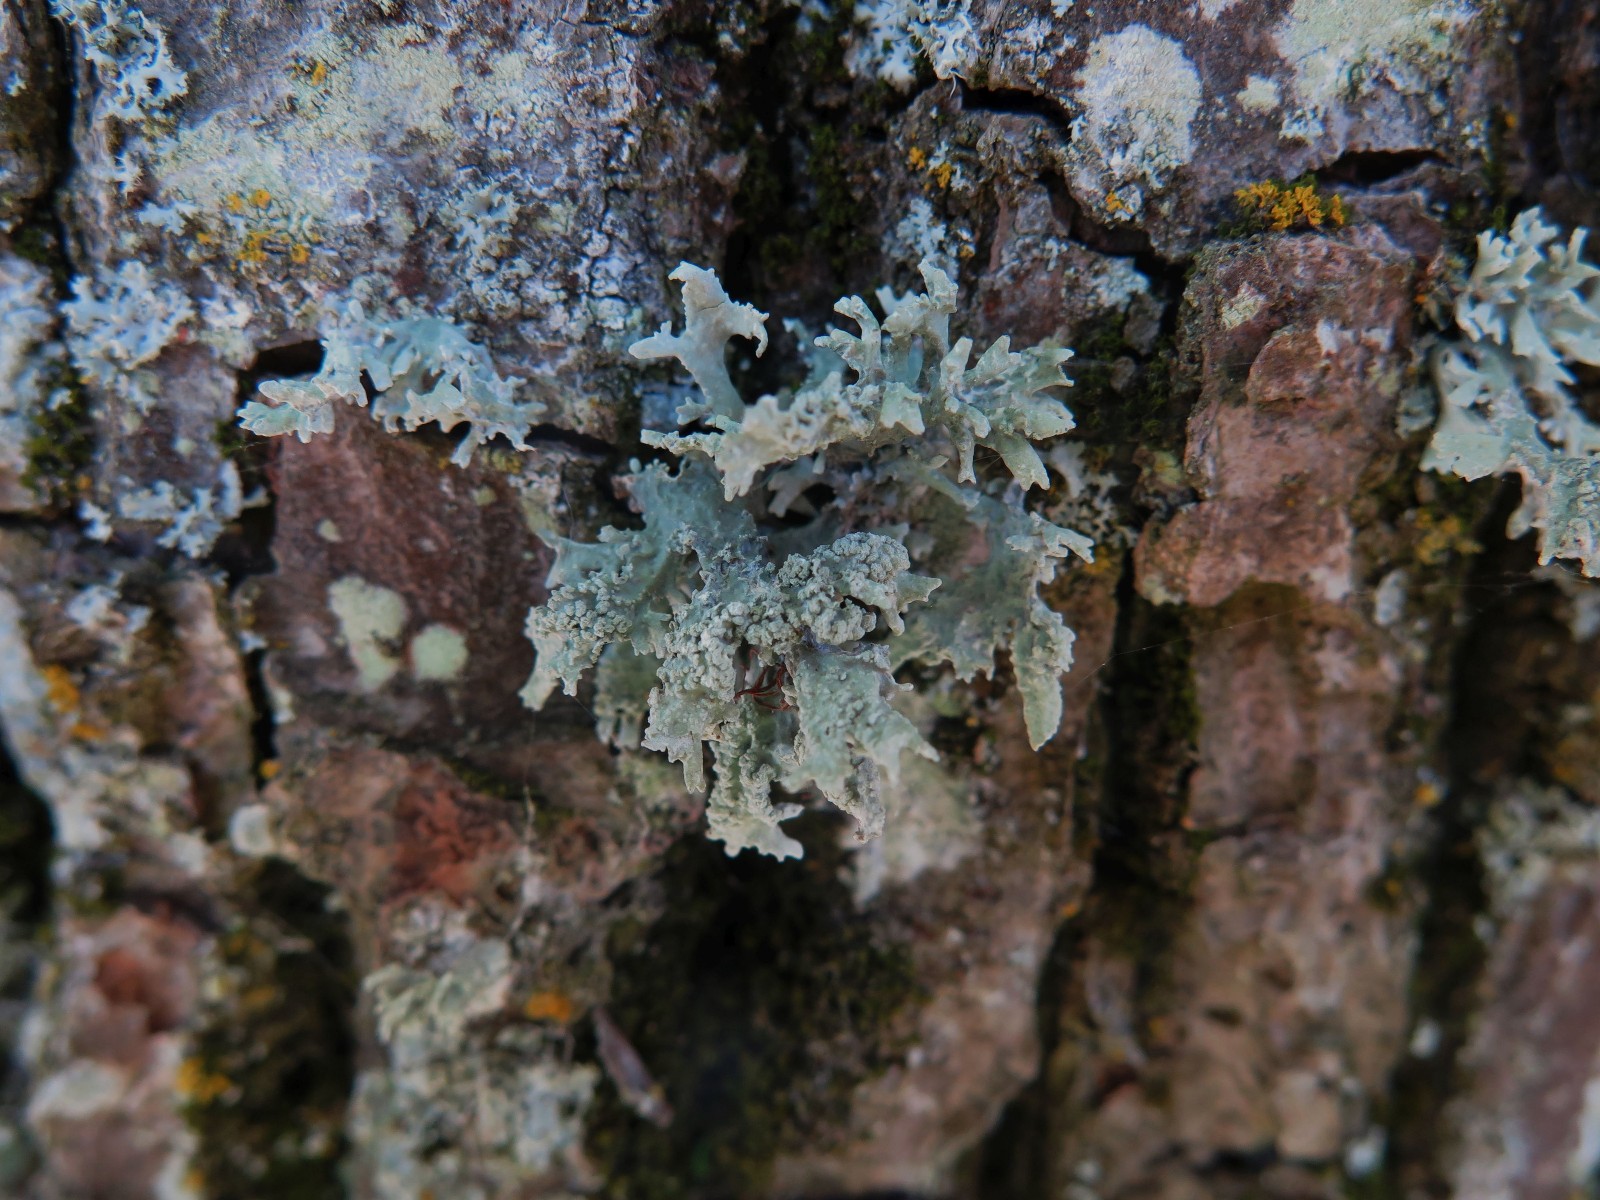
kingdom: Fungi
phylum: Ascomycota
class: Lecanoromycetes
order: Lecanorales
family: Parmeliaceae
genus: Evernia
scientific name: Evernia prunastri
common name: almindelig slåenlav
